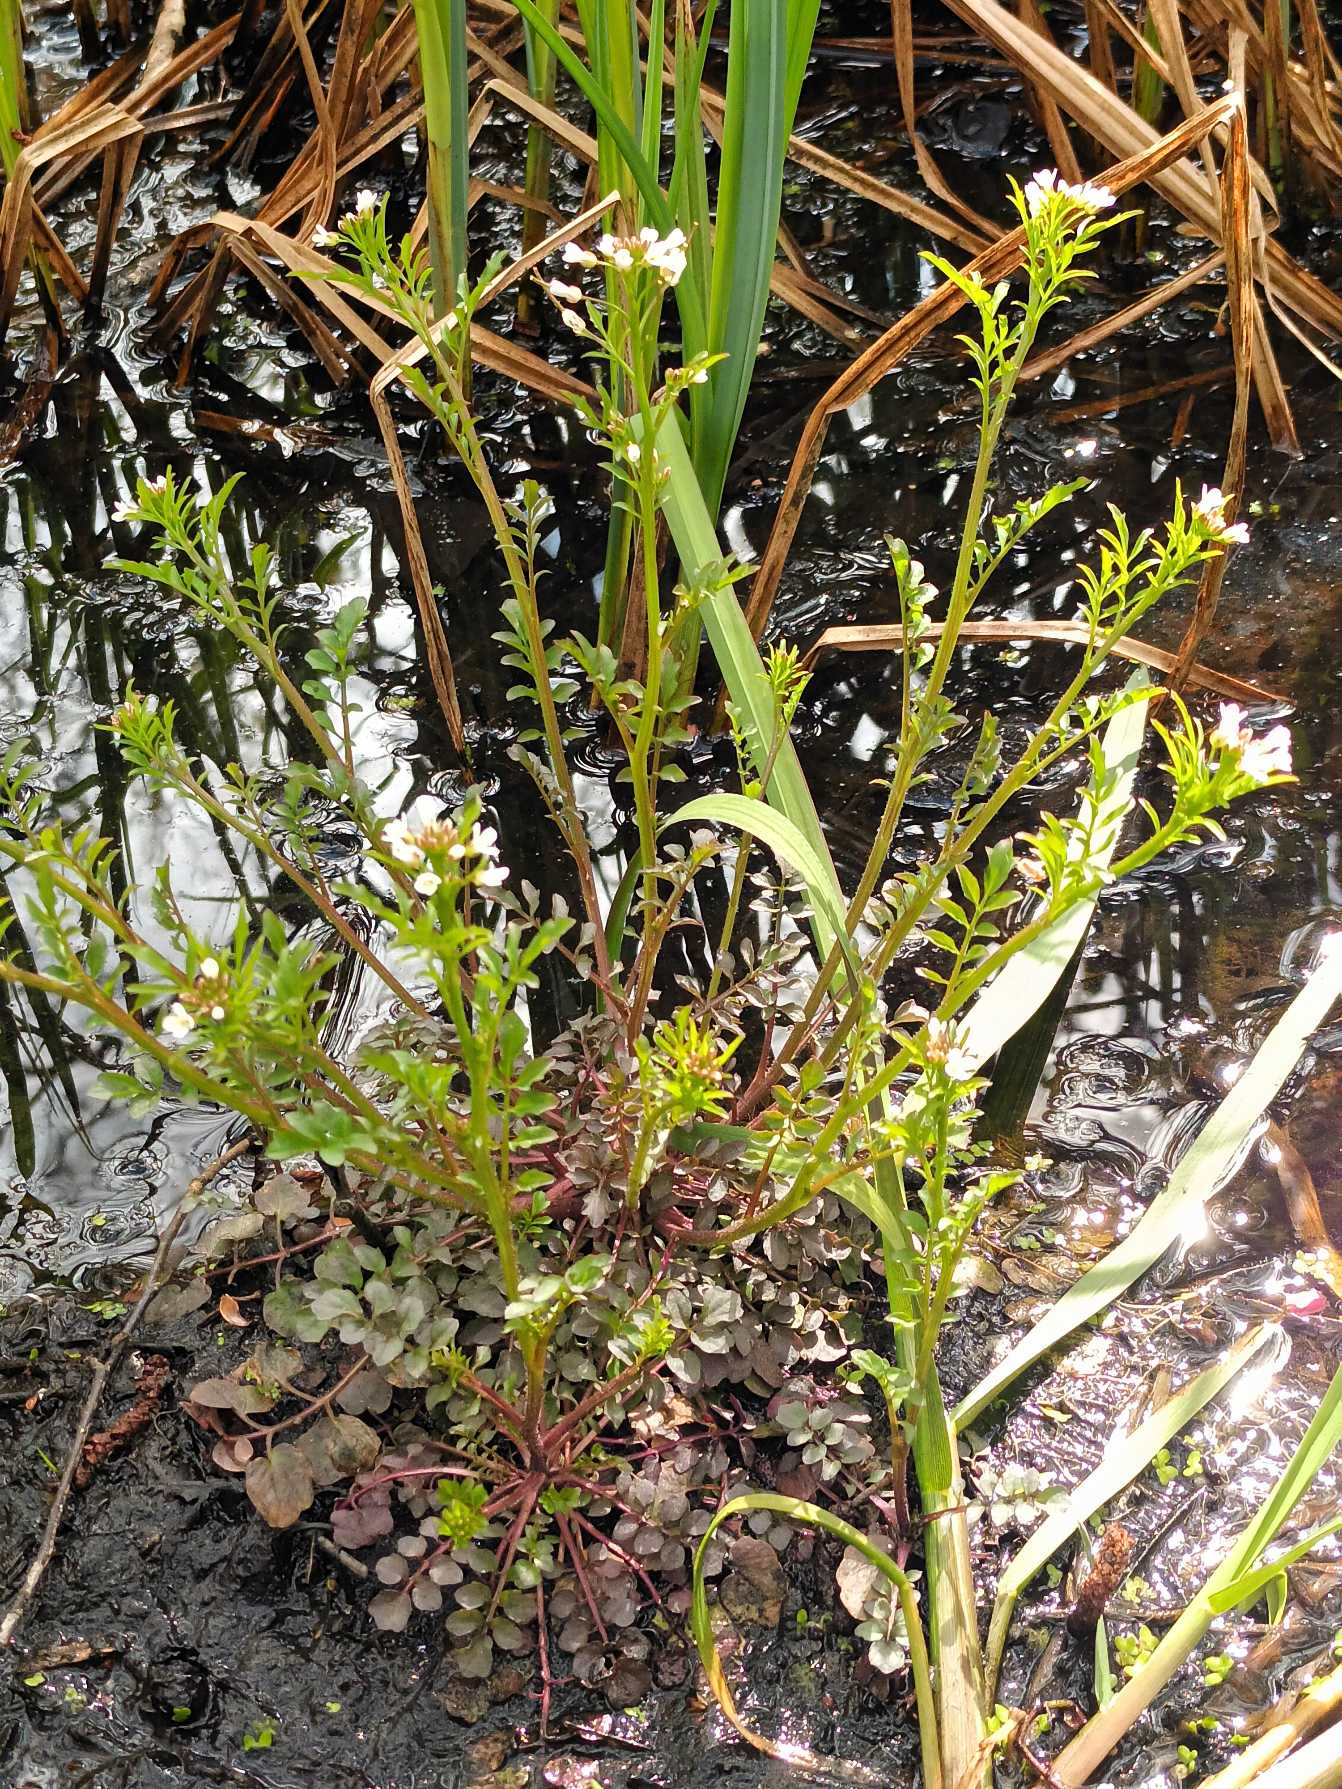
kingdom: Plantae
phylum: Tracheophyta
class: Magnoliopsida
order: Brassicales
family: Brassicaceae
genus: Cardamine
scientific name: Cardamine flexuosa
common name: Skov-springklap
